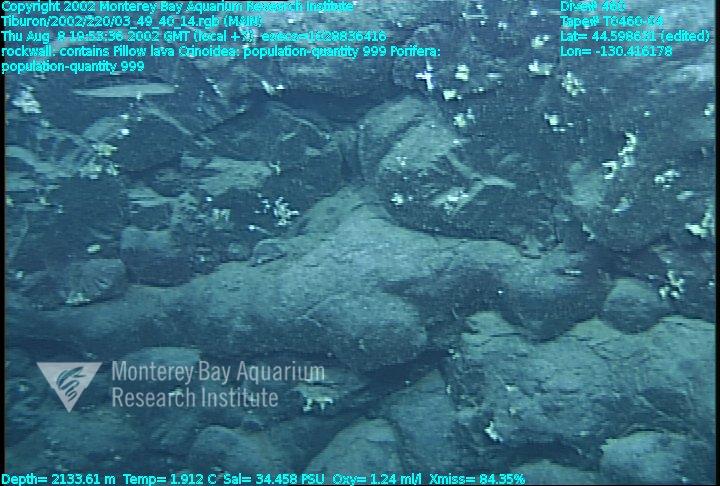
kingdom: Animalia
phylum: Porifera
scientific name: Porifera
